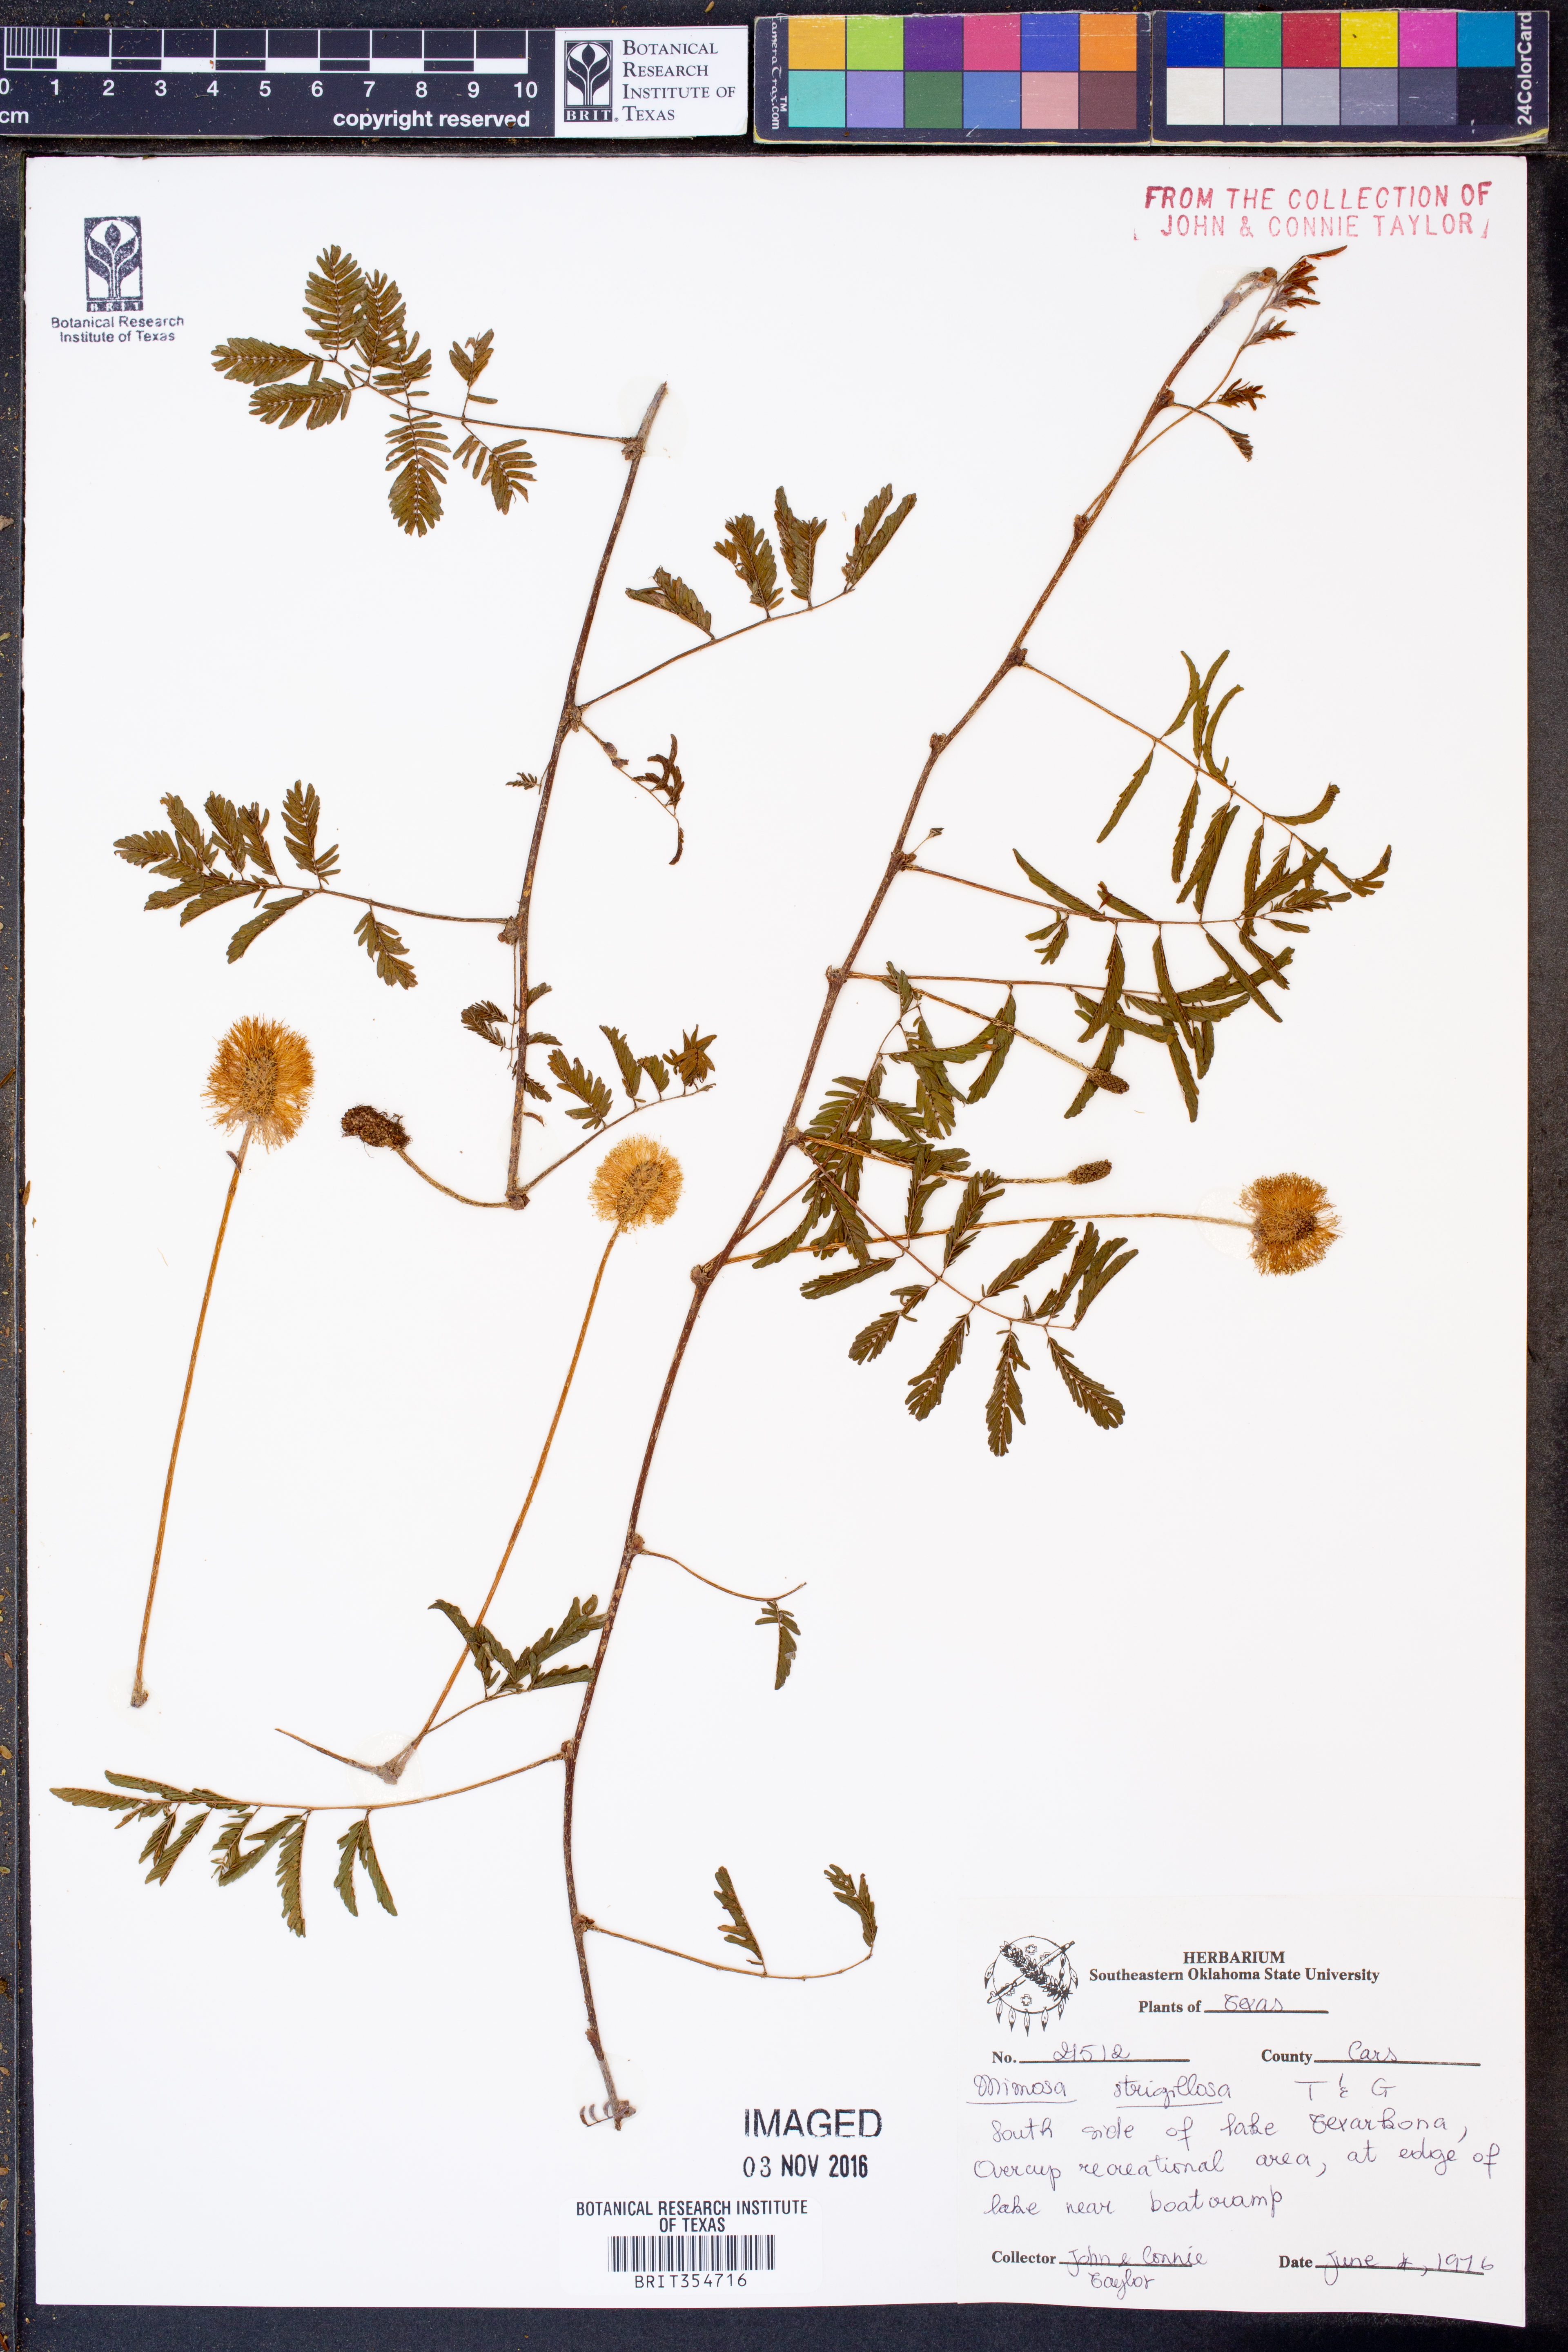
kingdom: Plantae
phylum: Tracheophyta
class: Magnoliopsida
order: Fabales
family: Fabaceae
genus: Mimosa
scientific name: Mimosa strigillosa
